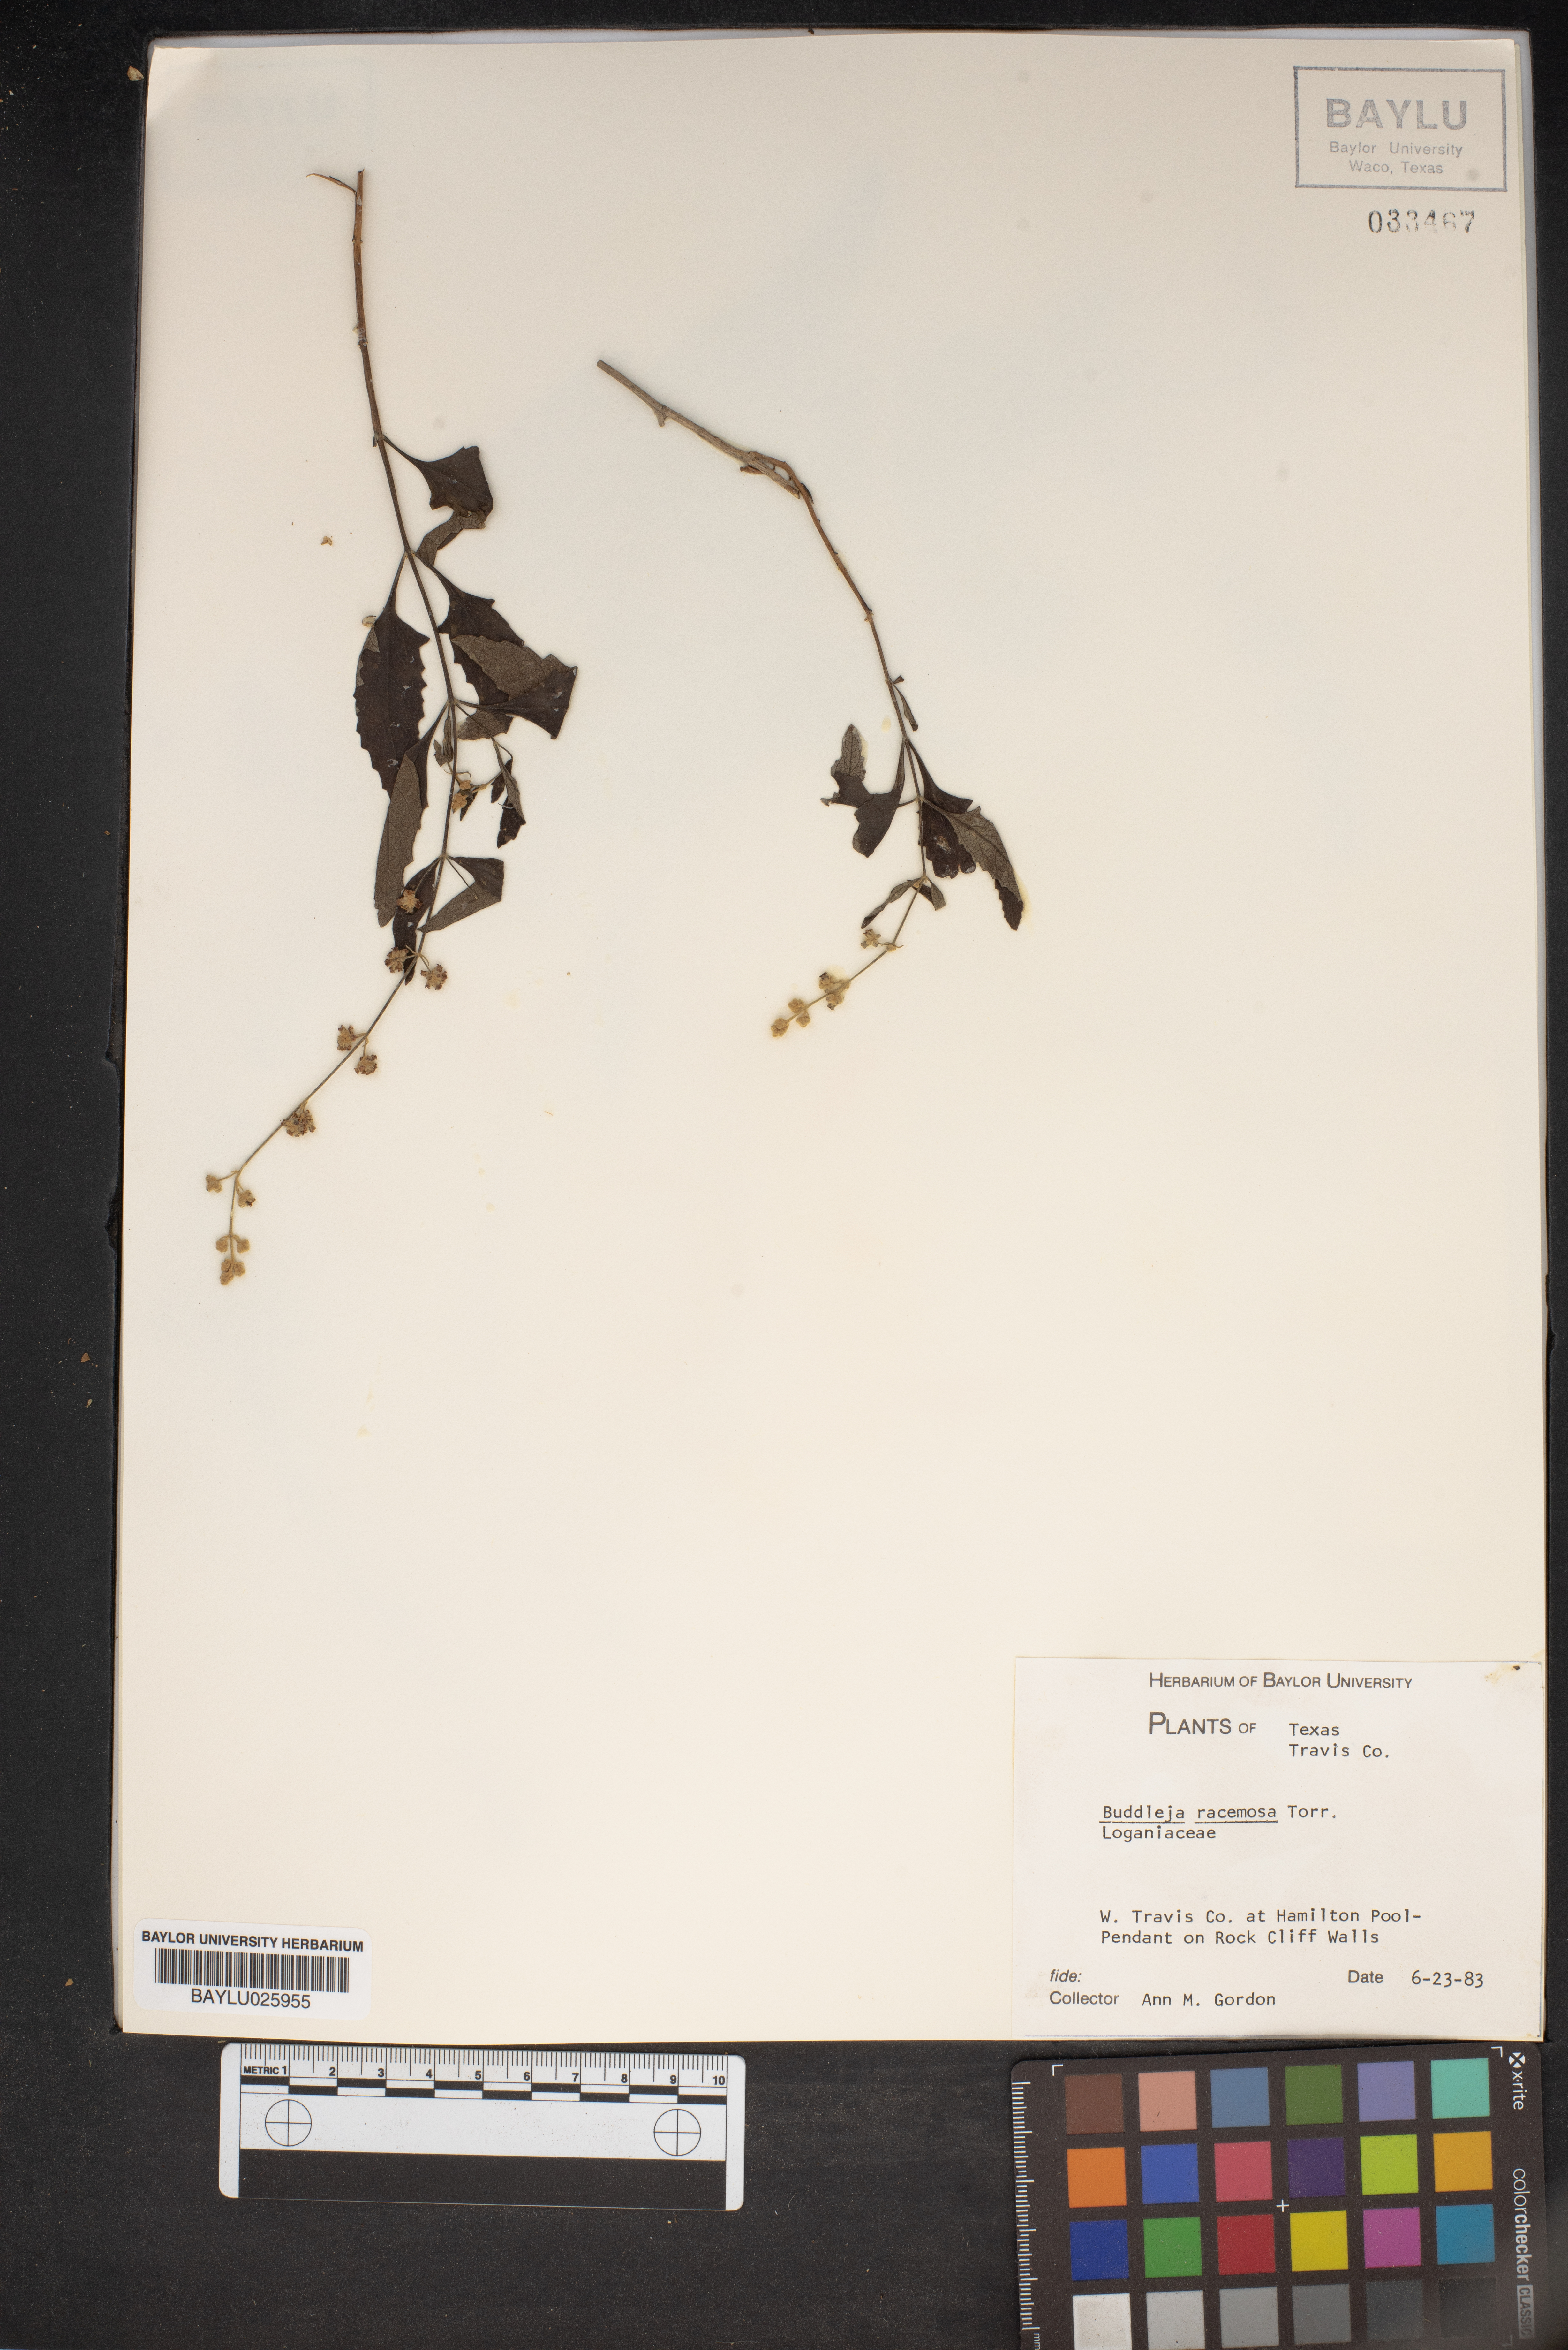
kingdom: Plantae
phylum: Tracheophyta
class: Magnoliopsida
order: Lamiales
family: Scrophulariaceae
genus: Buddleja
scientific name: Buddleja racemosa
